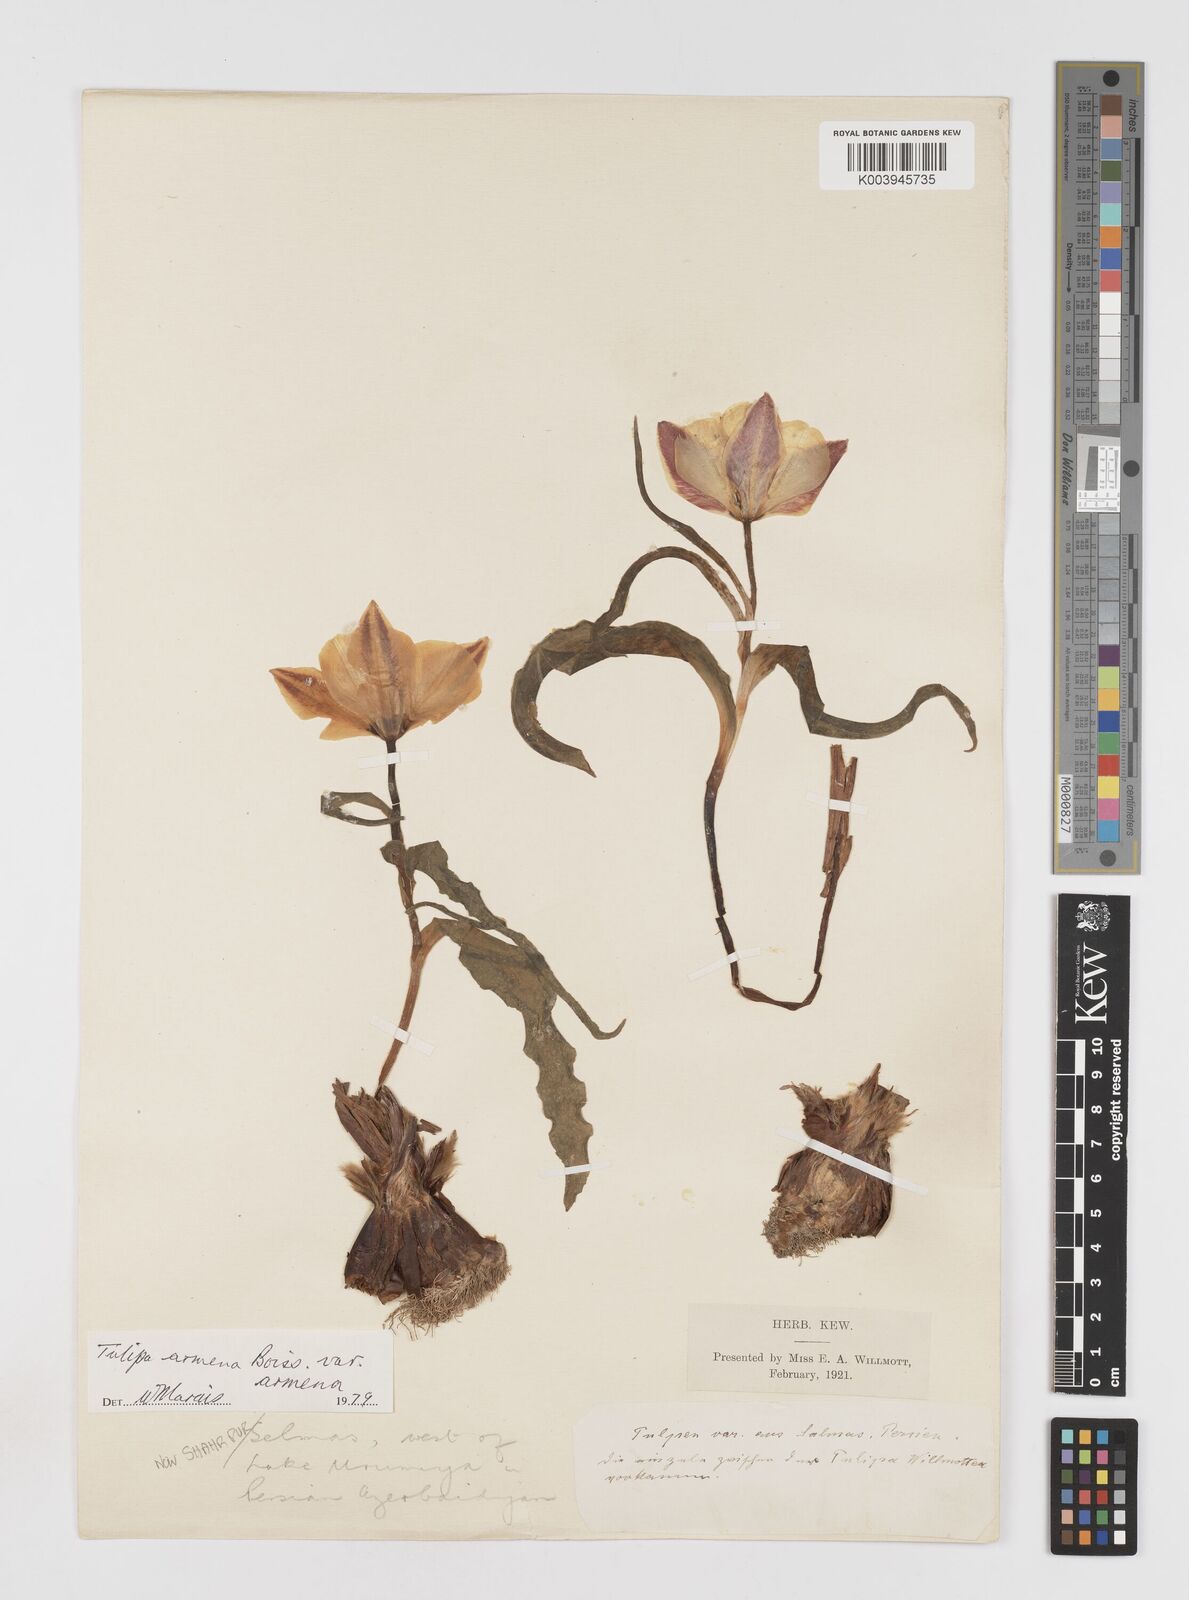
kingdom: Plantae
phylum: Tracheophyta
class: Liliopsida
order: Liliales
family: Liliaceae
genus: Tulipa
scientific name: Tulipa armena
